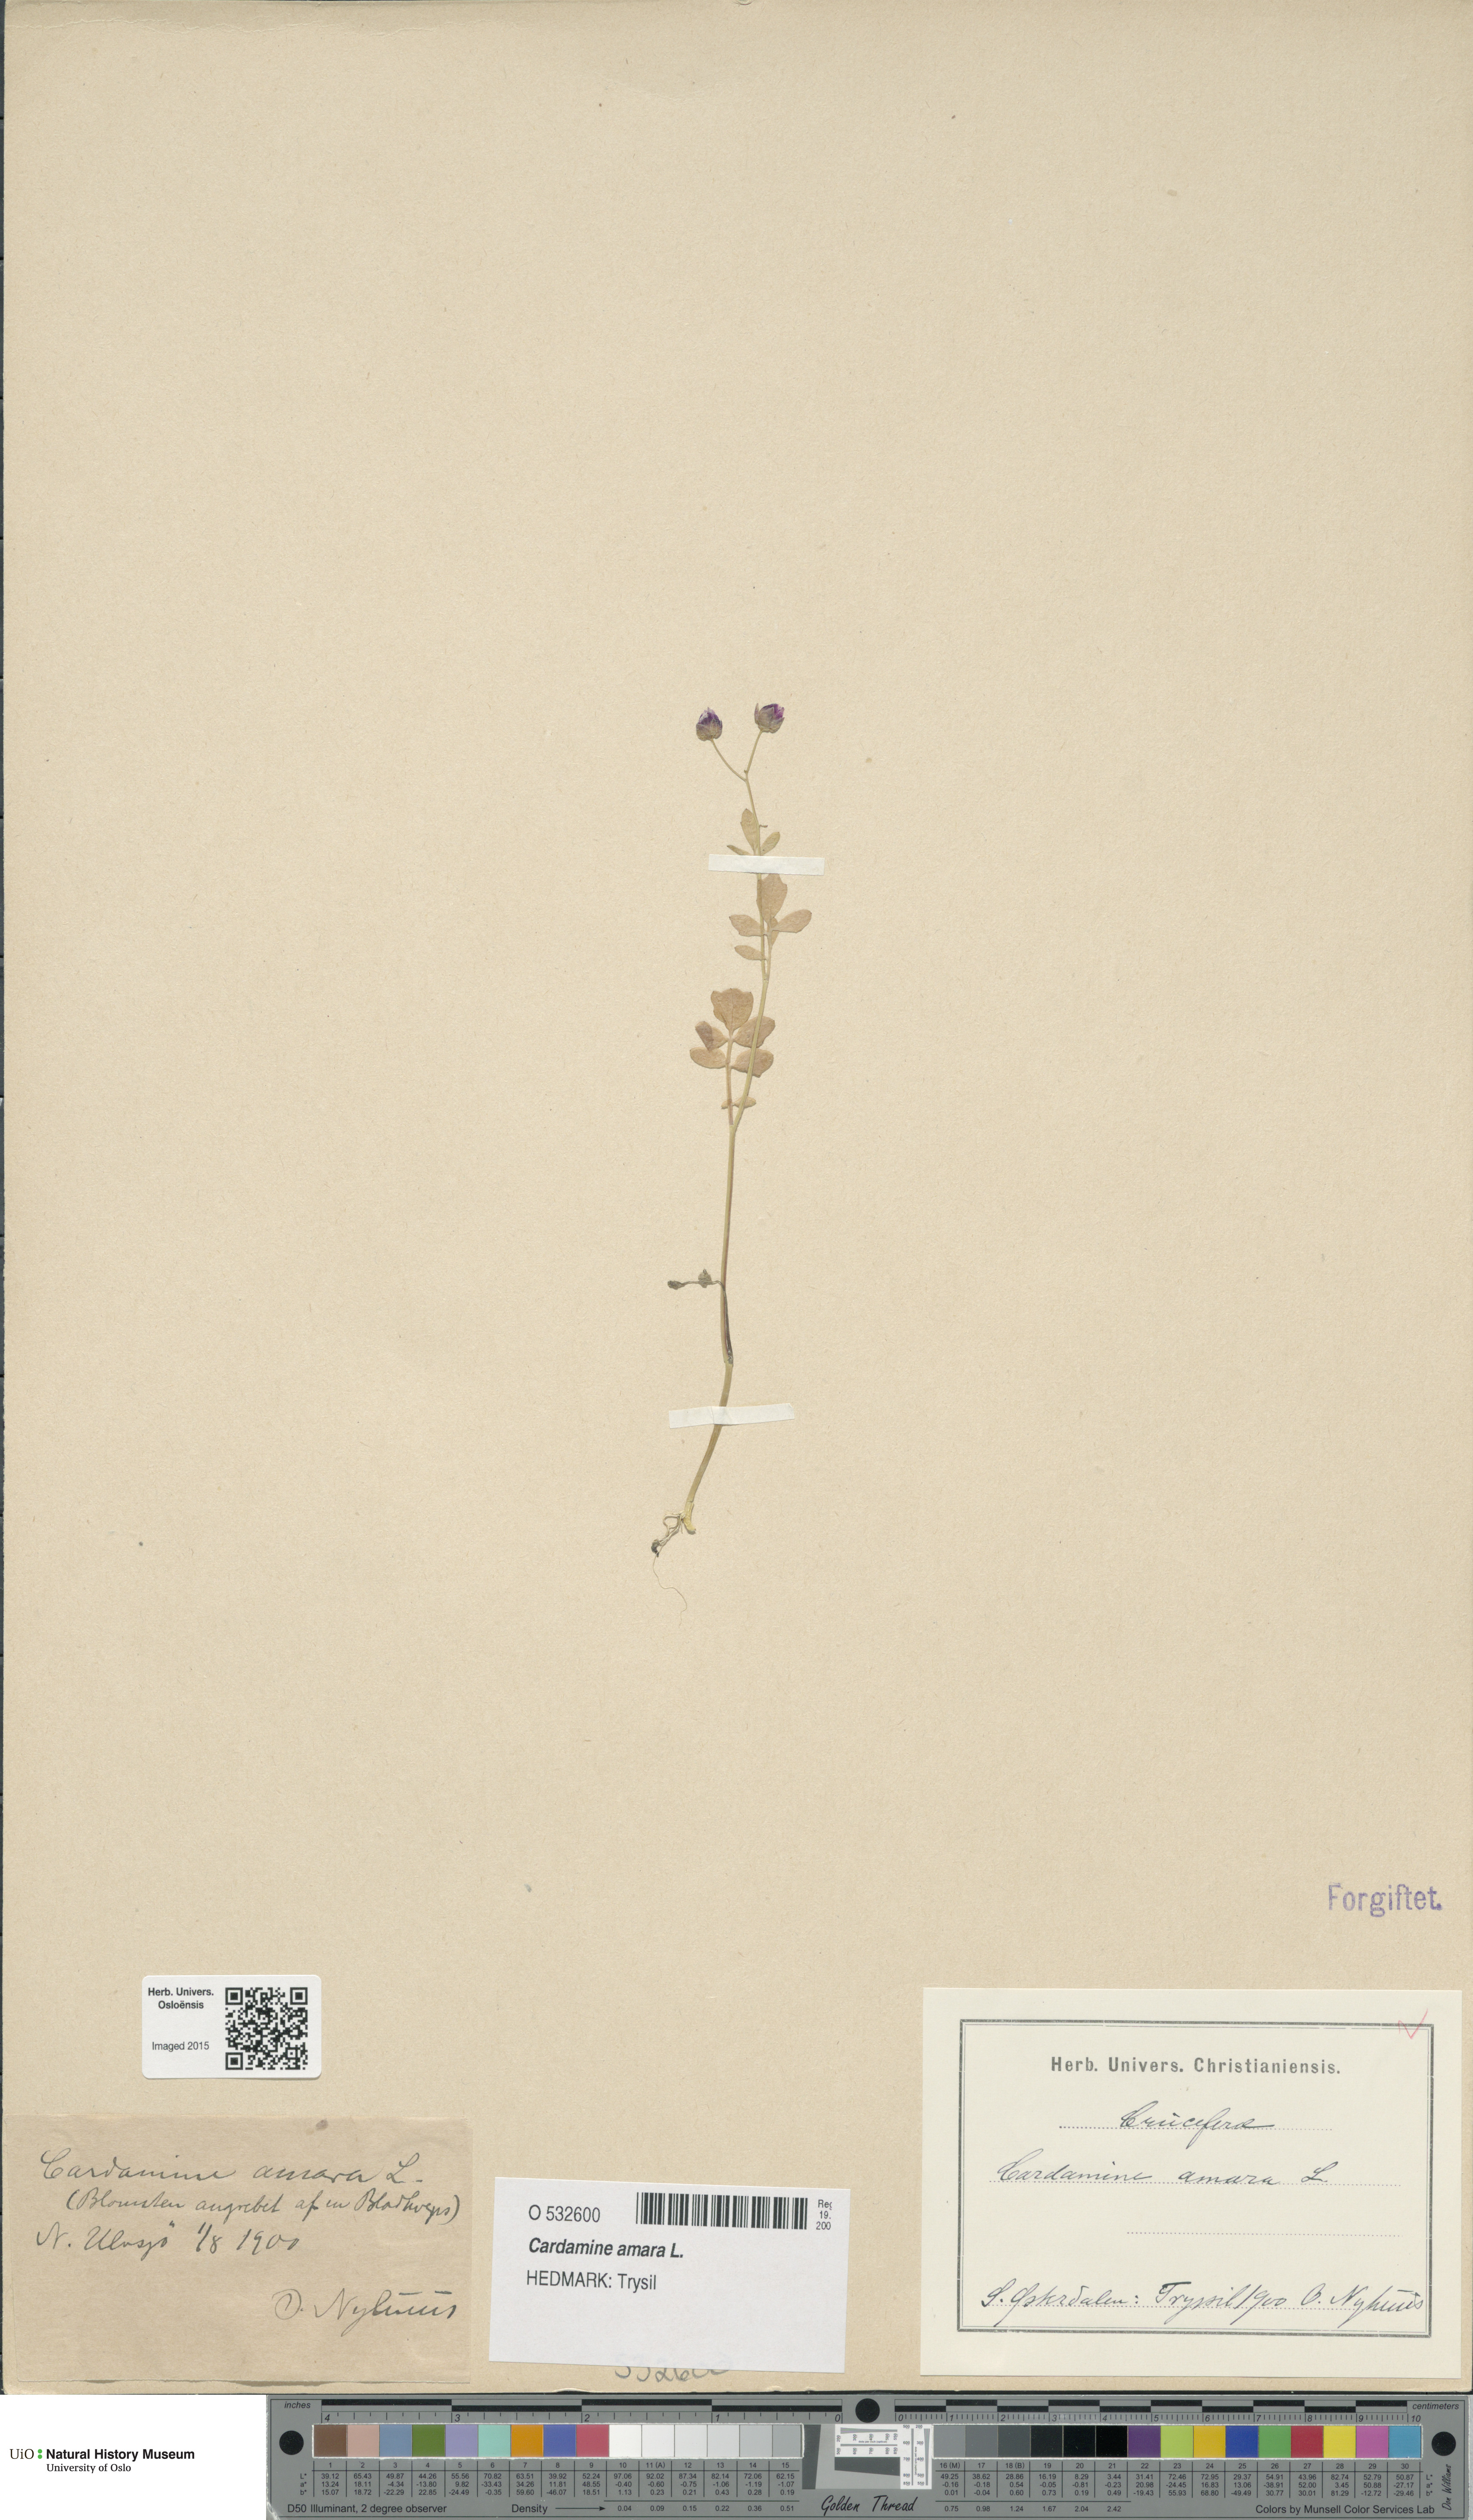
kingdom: Plantae
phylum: Tracheophyta
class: Magnoliopsida
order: Brassicales
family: Brassicaceae
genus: Cardamine
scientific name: Cardamine amara
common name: Large bitter-cress
